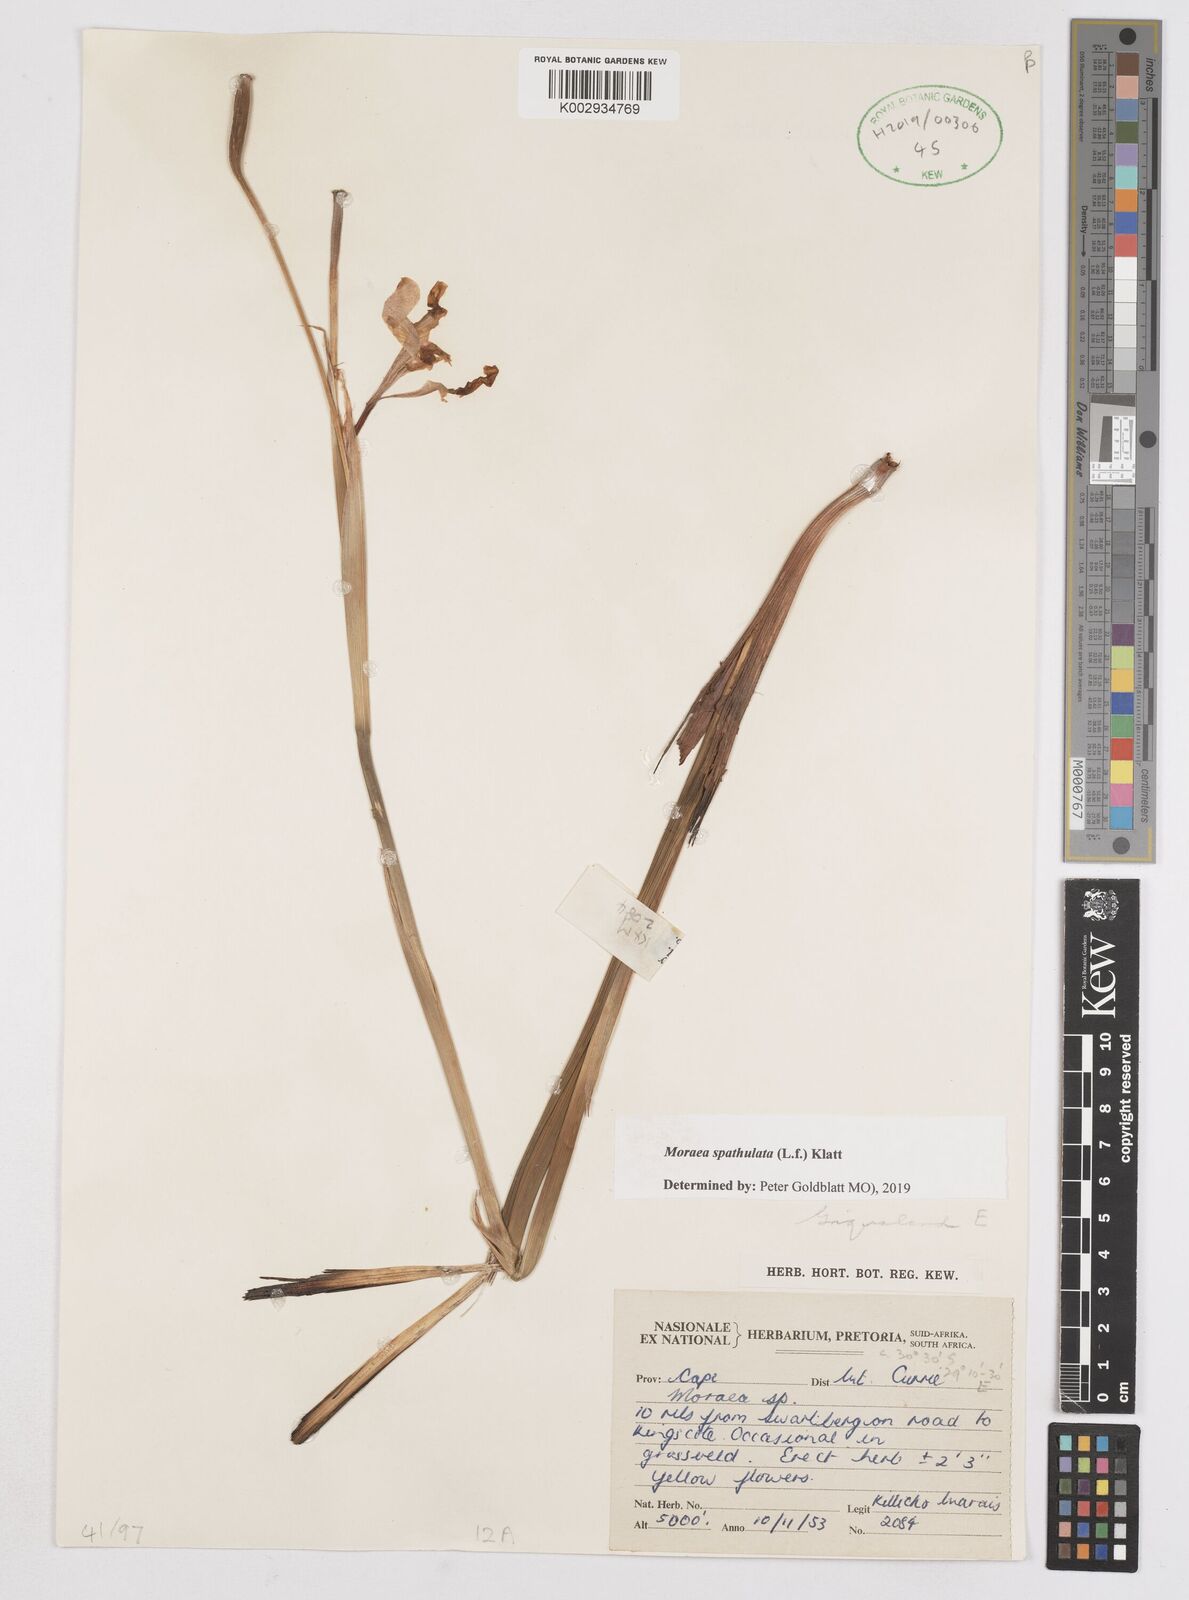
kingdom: Plantae
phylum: Tracheophyta
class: Liliopsida
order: Asparagales
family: Iridaceae
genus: Moraea
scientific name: Moraea spathulata
